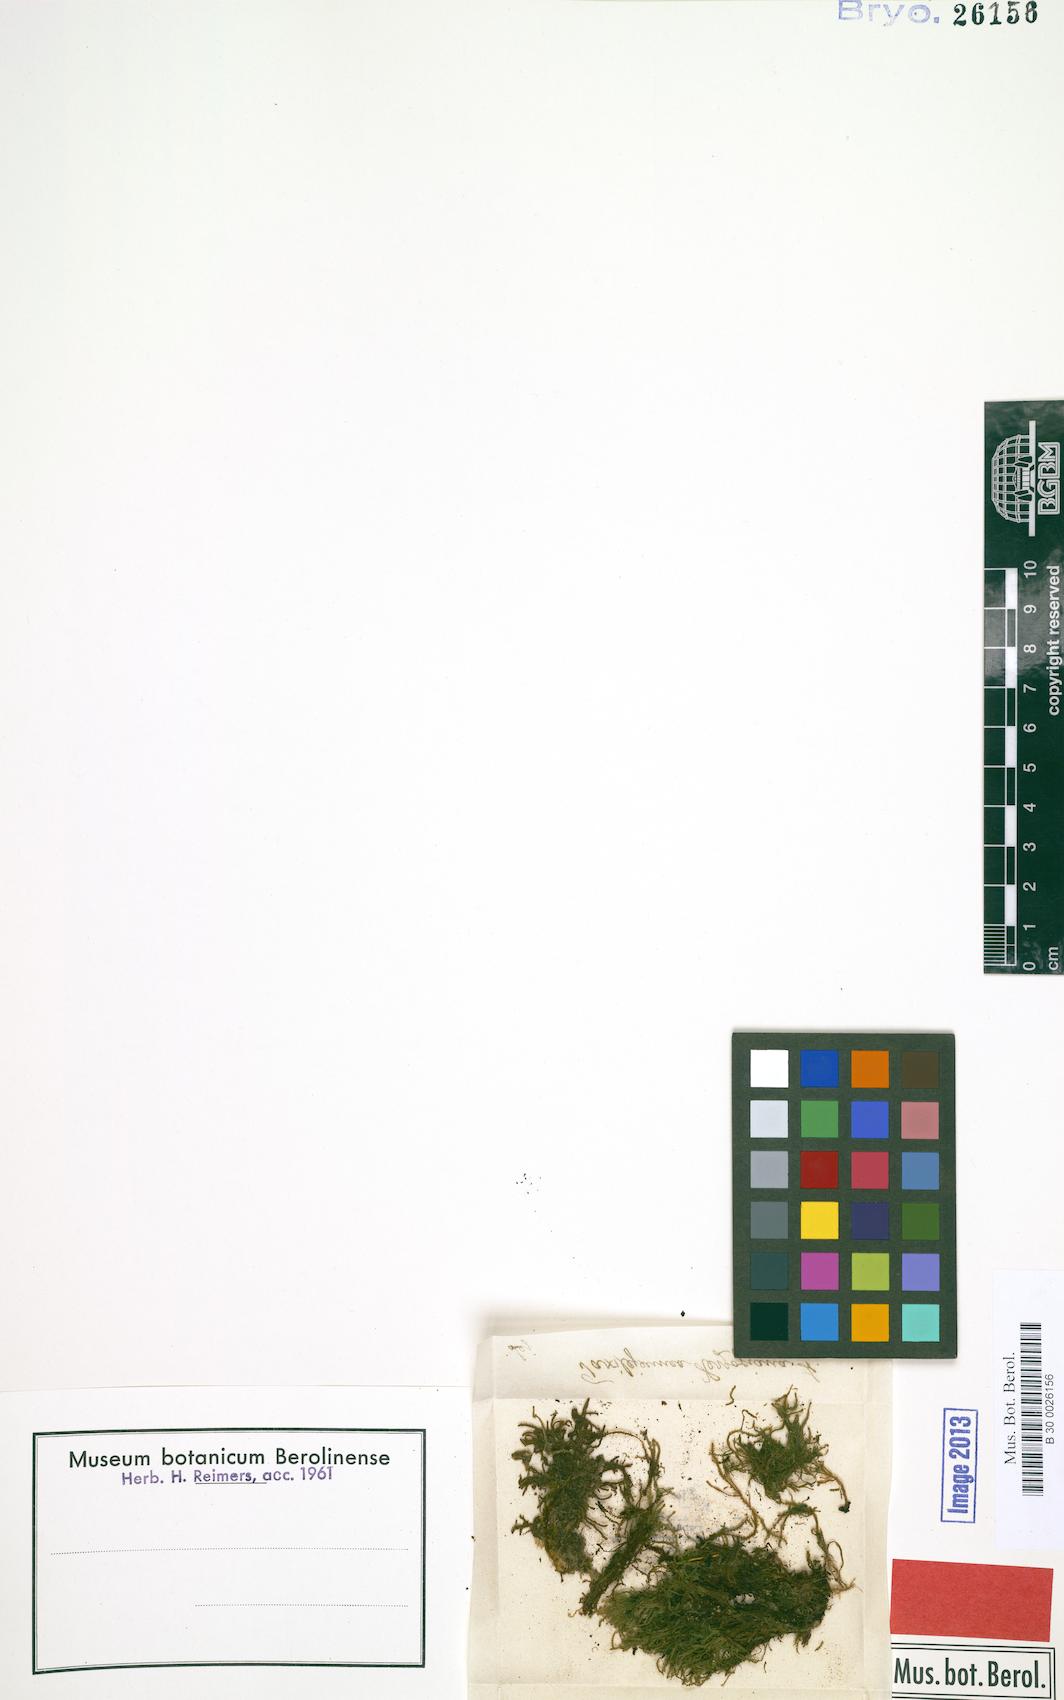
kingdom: Plantae
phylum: Marchantiophyta
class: Jungermanniopsida
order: Porellales
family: Lejeuneaceae
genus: Taxilejeunea
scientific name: Taxilejeunea herzogiana
